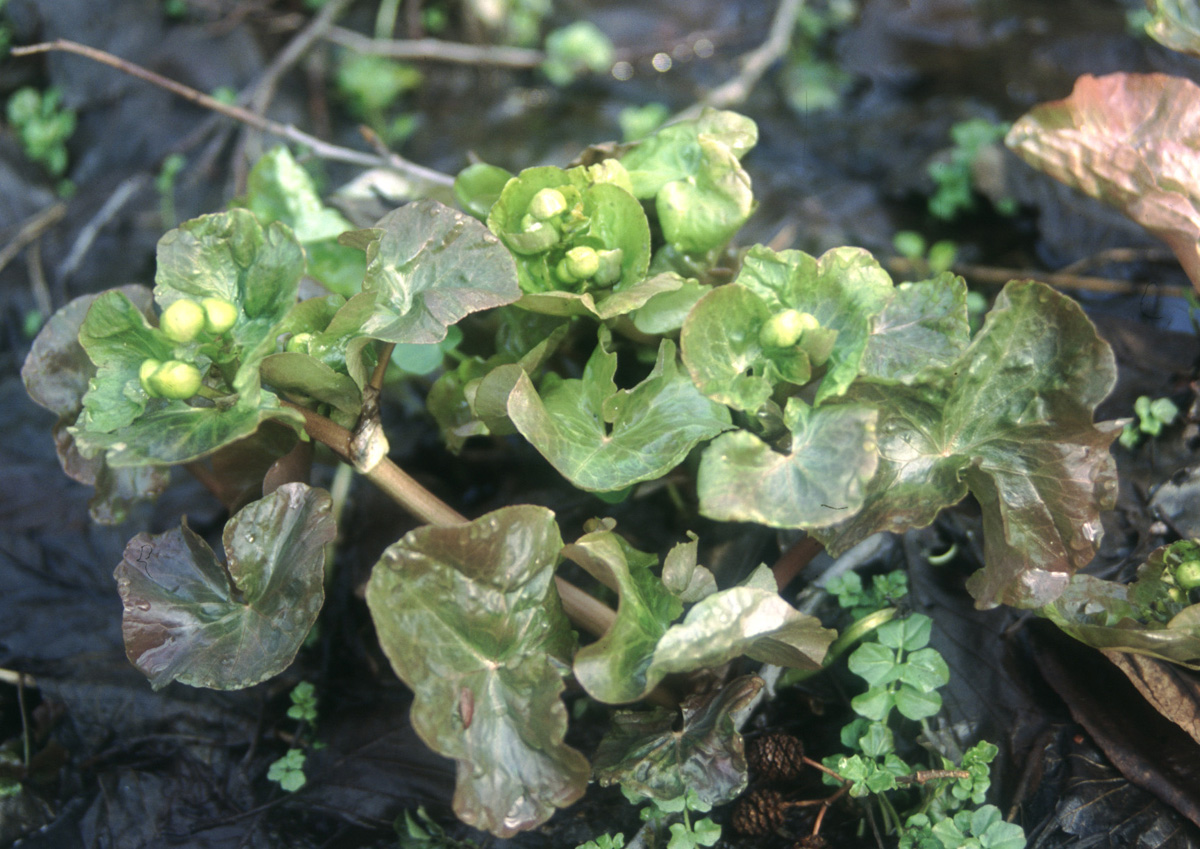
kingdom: Plantae
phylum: Tracheophyta
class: Magnoliopsida
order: Ranunculales
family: Ranunculaceae
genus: Caltha
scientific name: Caltha palustris
